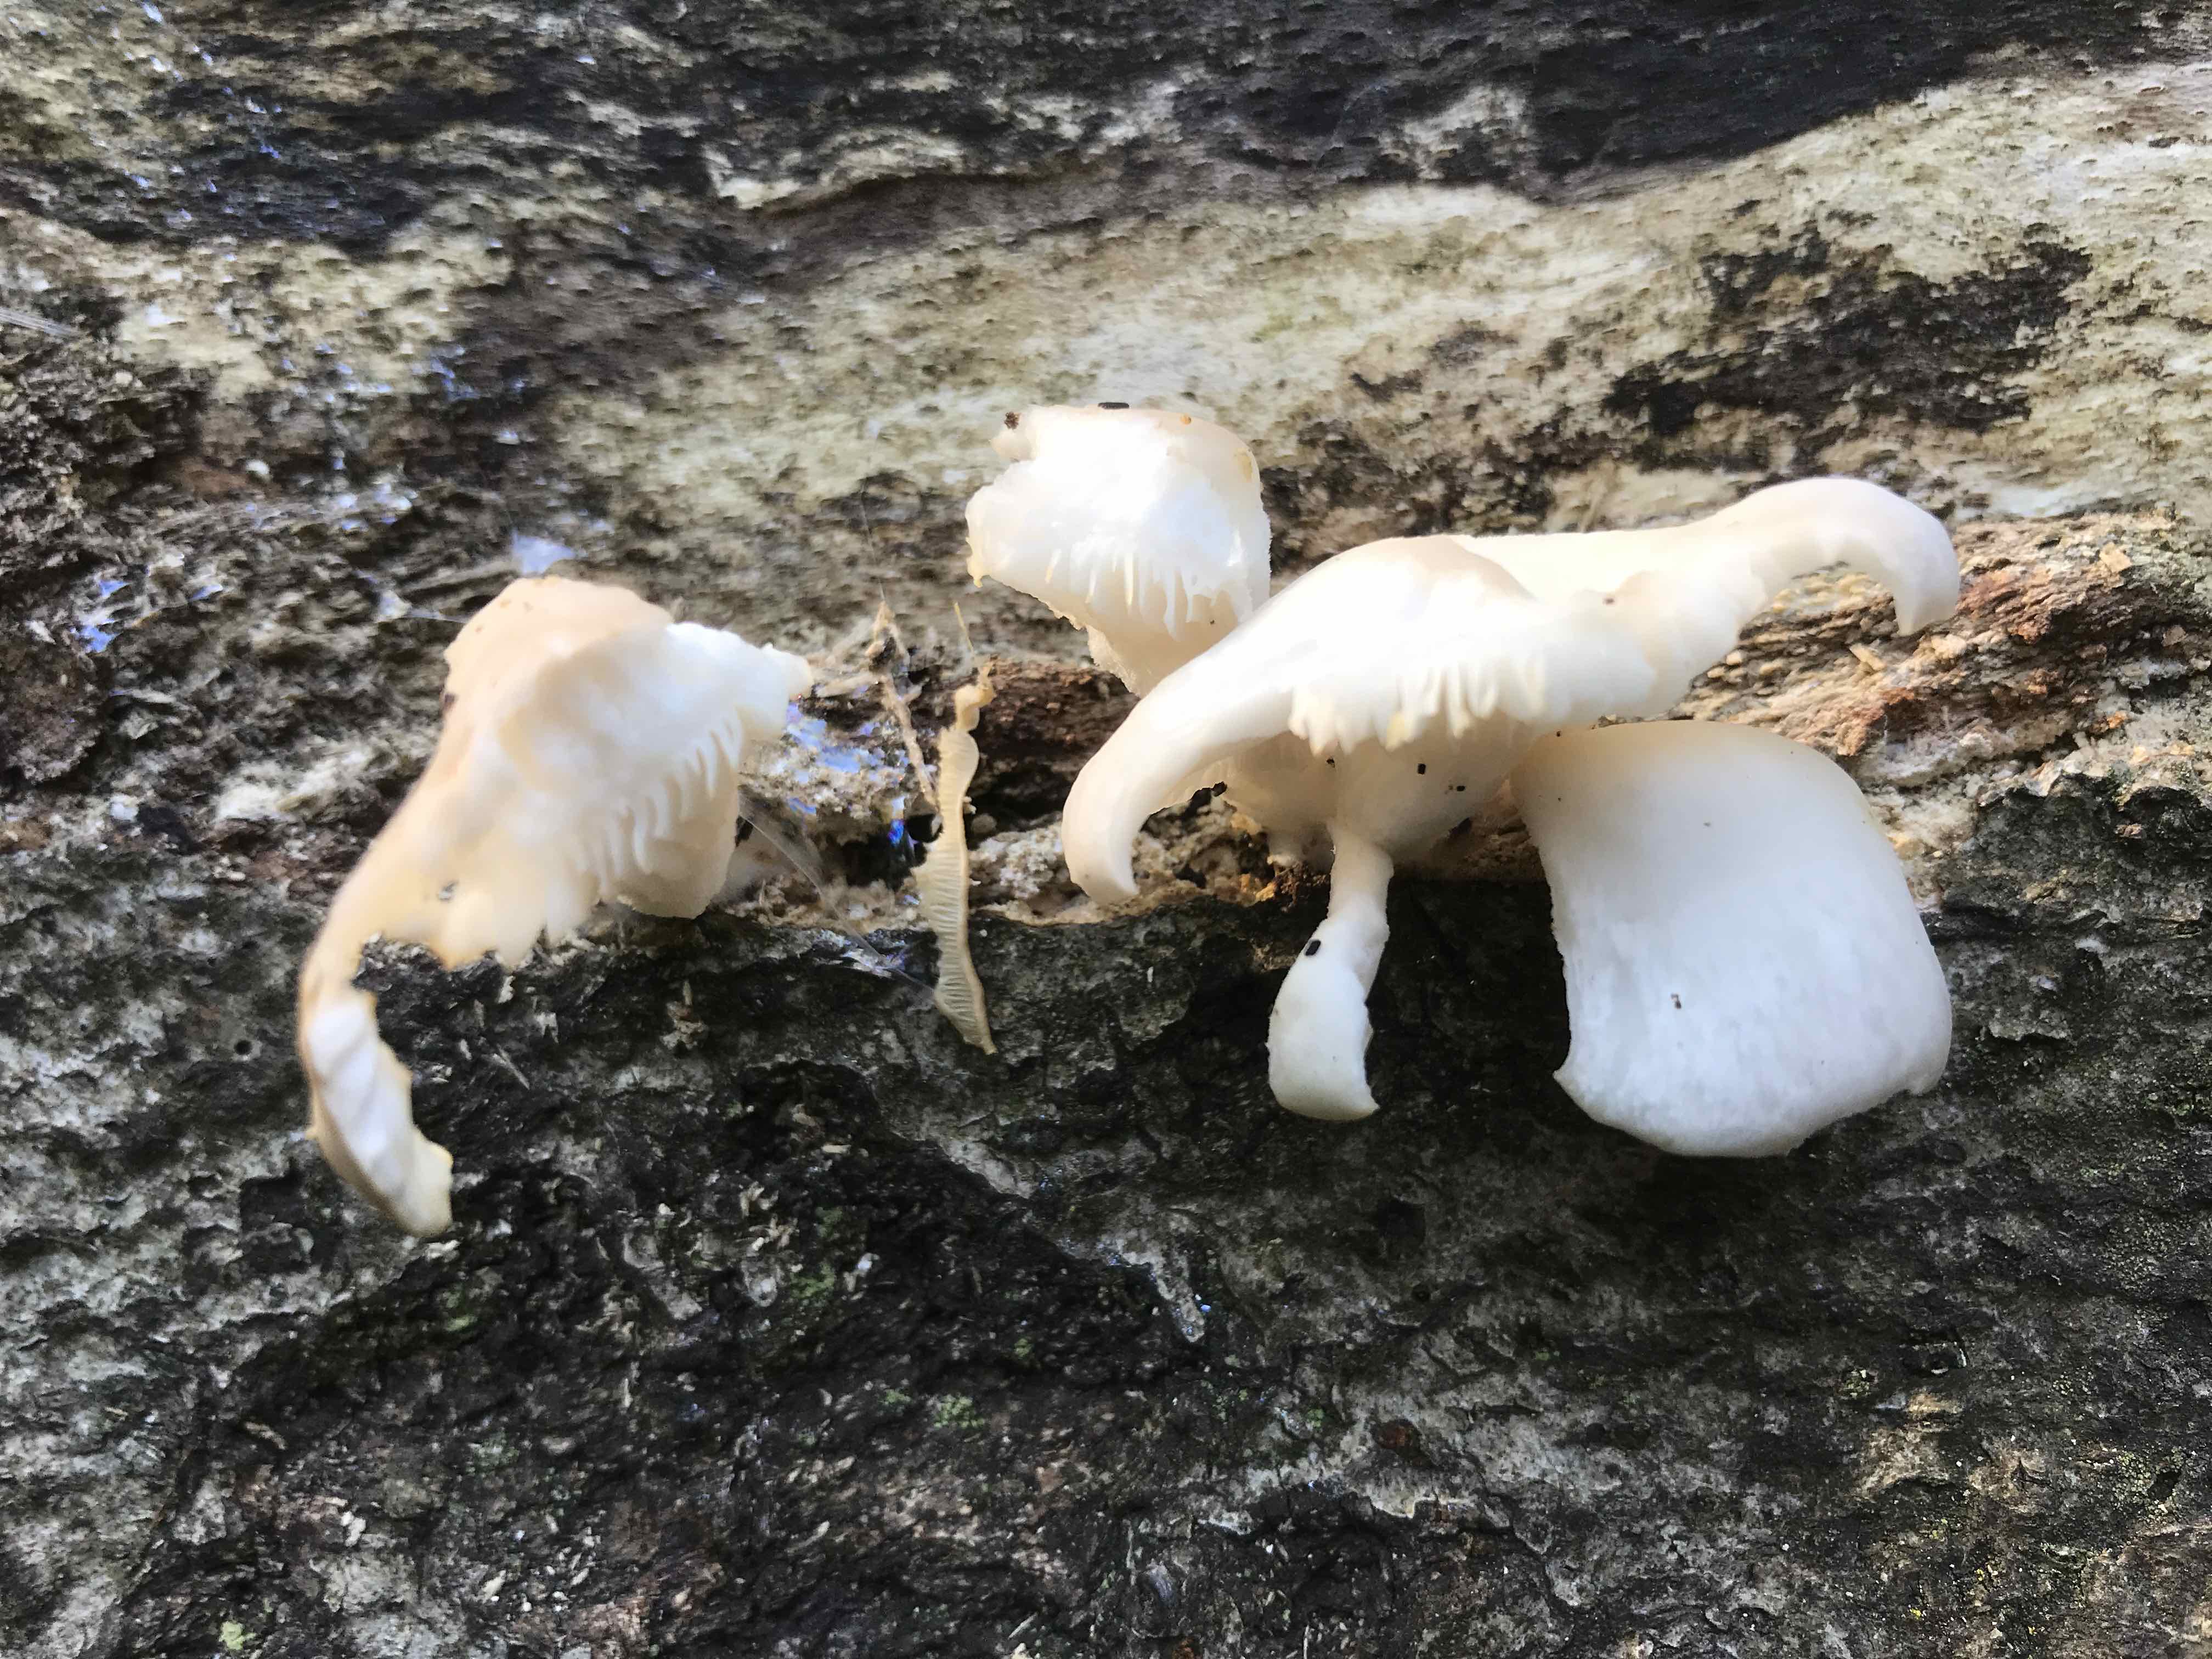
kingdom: Fungi
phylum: Basidiomycota
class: Agaricomycetes
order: Agaricales
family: Pleurotaceae
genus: Pleurotus
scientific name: Pleurotus pulmonarius
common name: sommer-østershat
